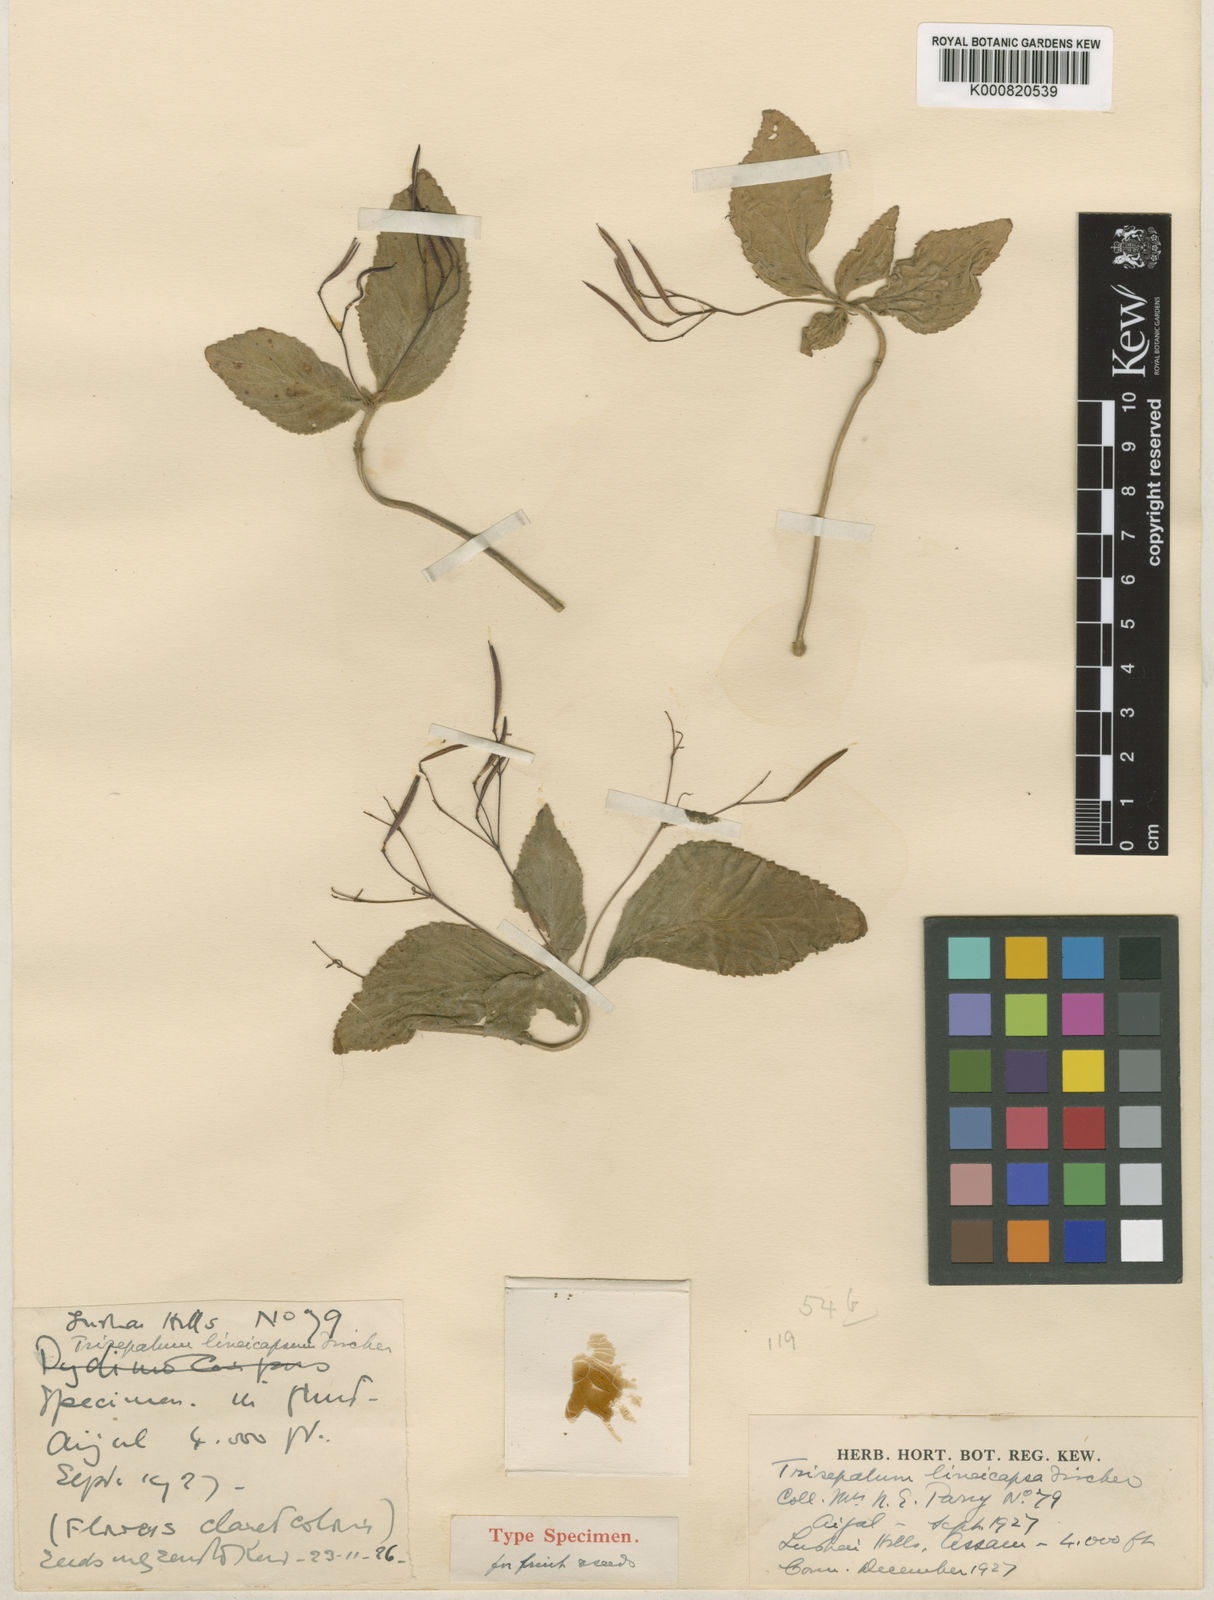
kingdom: Plantae
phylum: Tracheophyta
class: Magnoliopsida
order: Lamiales
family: Gesneriaceae
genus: Didymocarpus
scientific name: Didymocarpus lineicapsa
